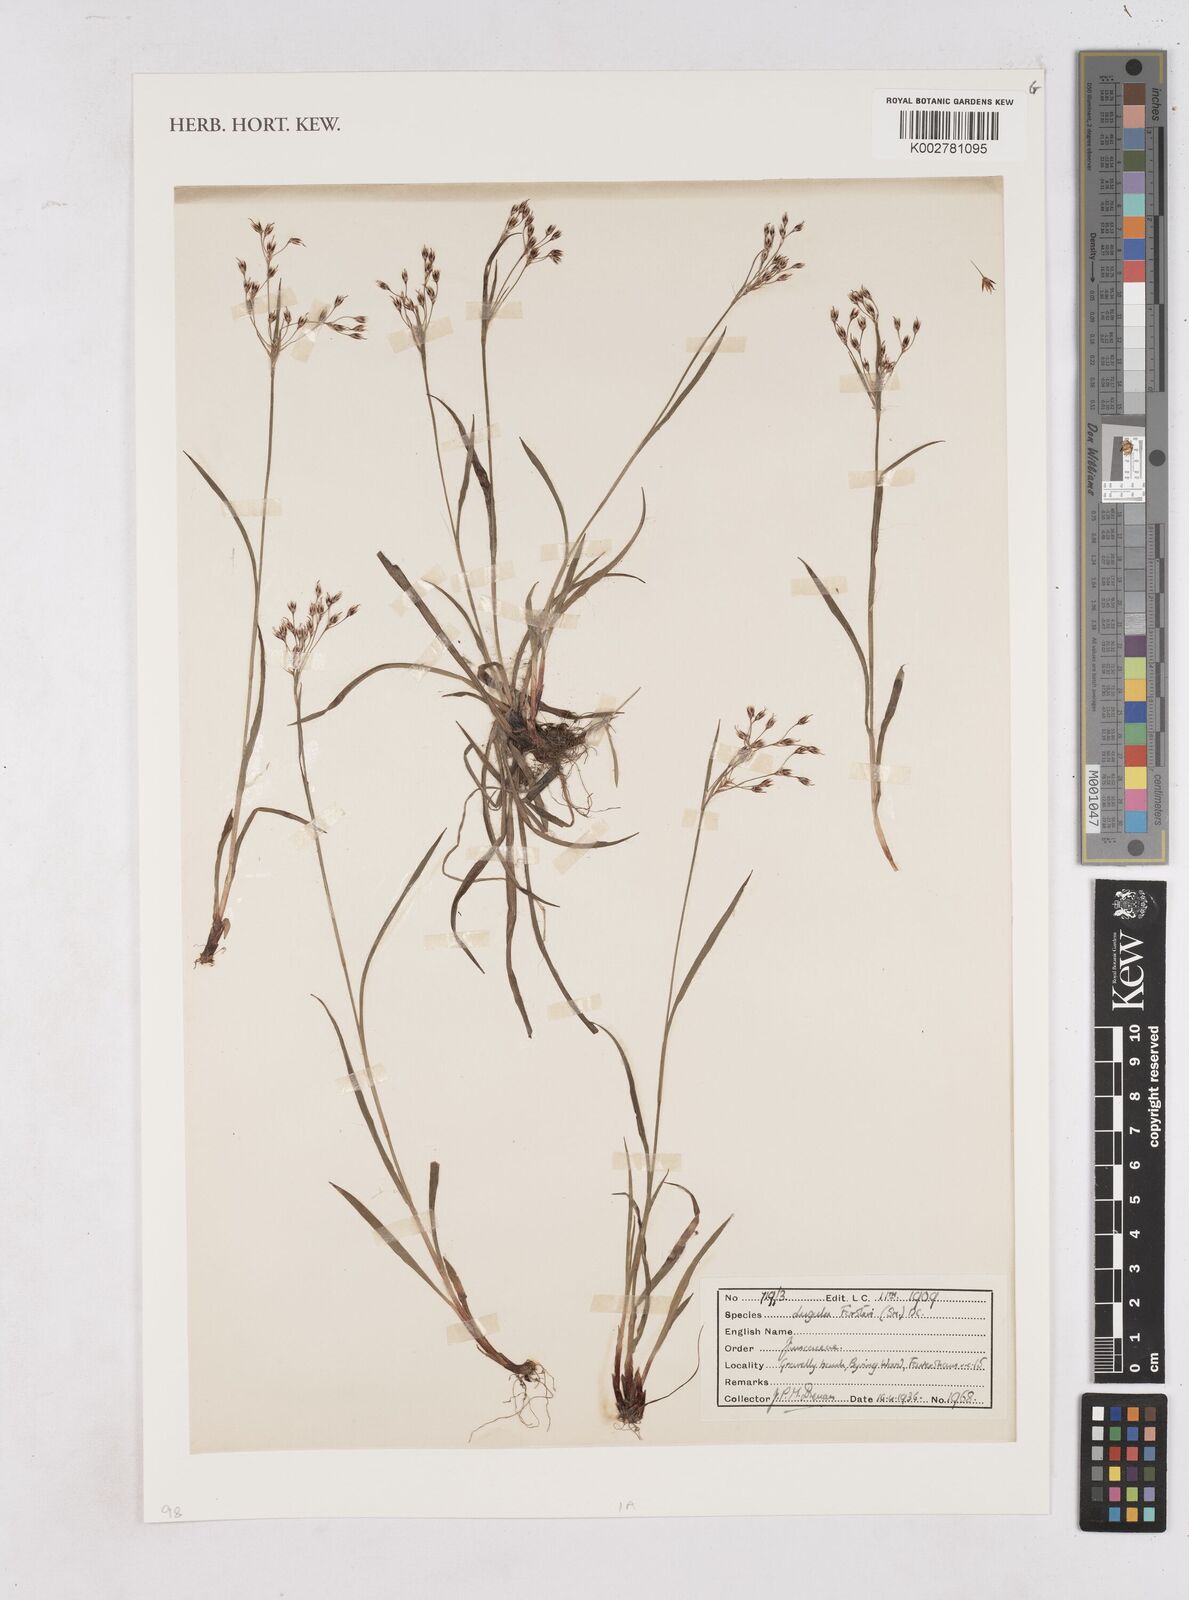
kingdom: Plantae
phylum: Tracheophyta
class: Liliopsida
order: Poales
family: Juncaceae
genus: Luzula
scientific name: Luzula forsteri
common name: Southern wood-rush
